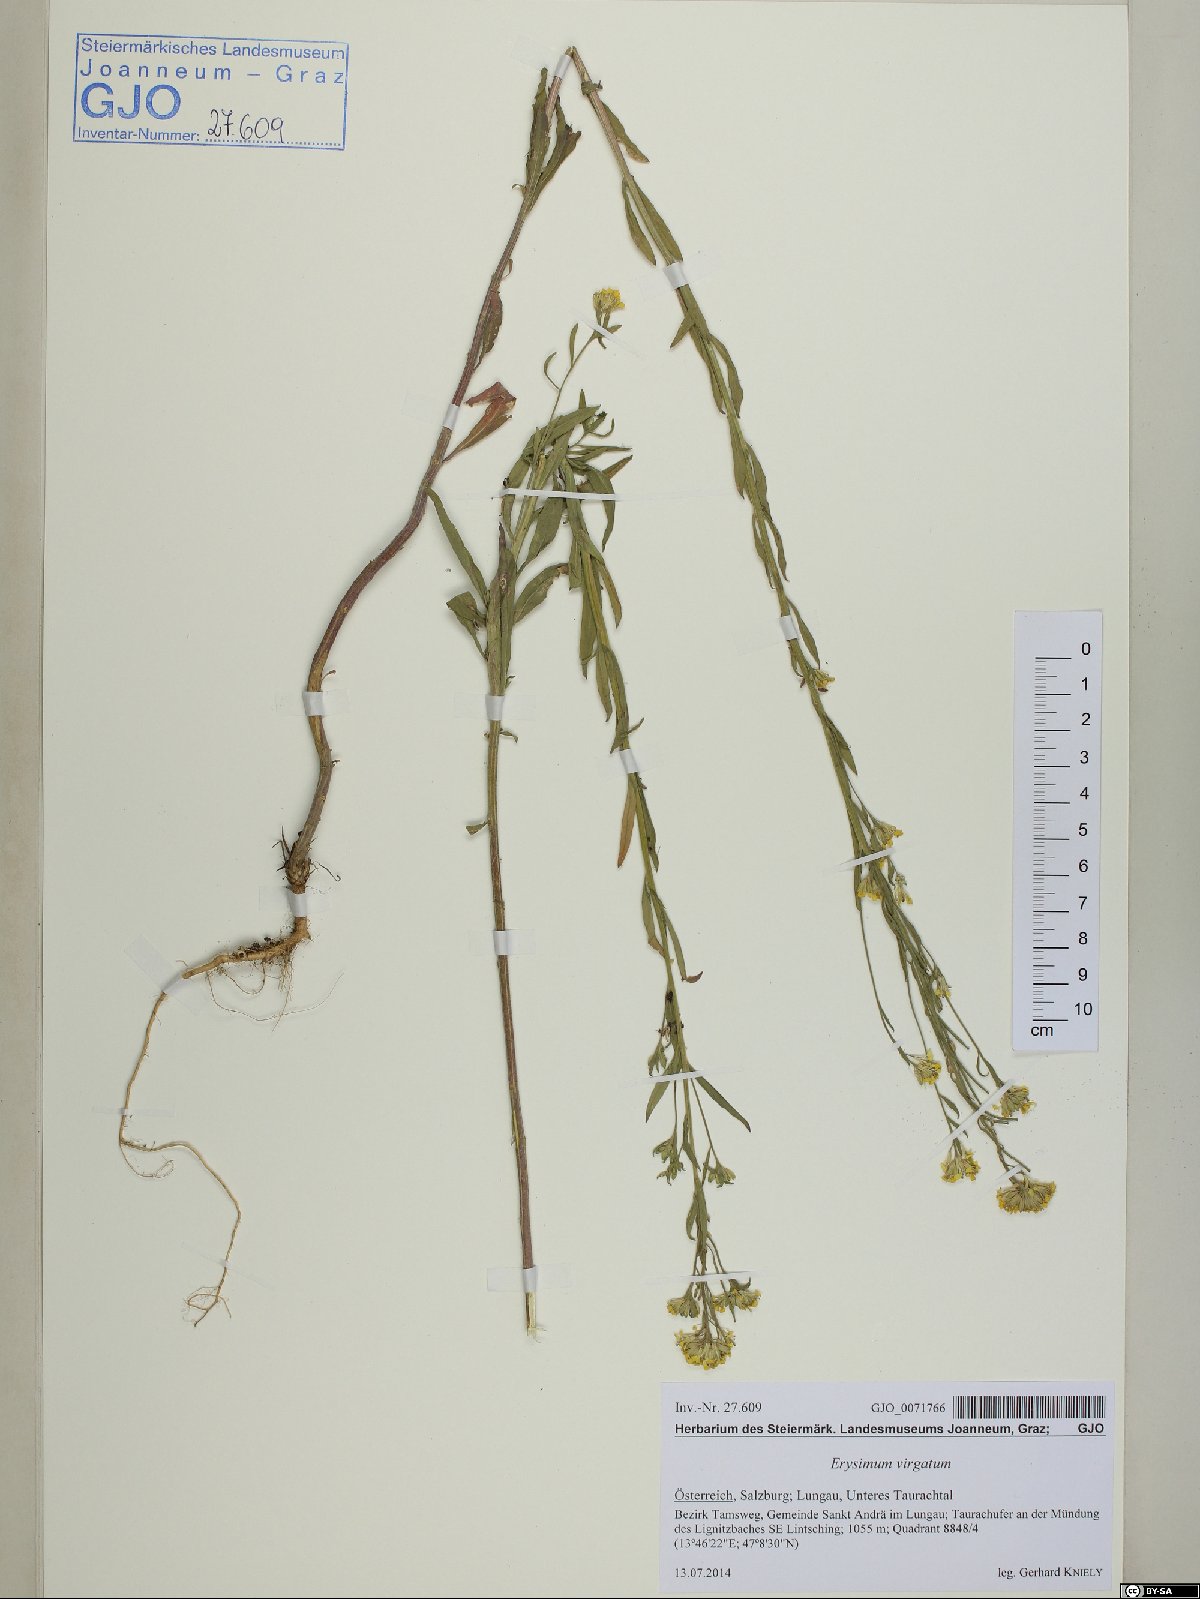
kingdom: Plantae
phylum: Tracheophyta
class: Magnoliopsida
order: Brassicales
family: Brassicaceae
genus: Erysimum
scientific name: Erysimum virgatum
